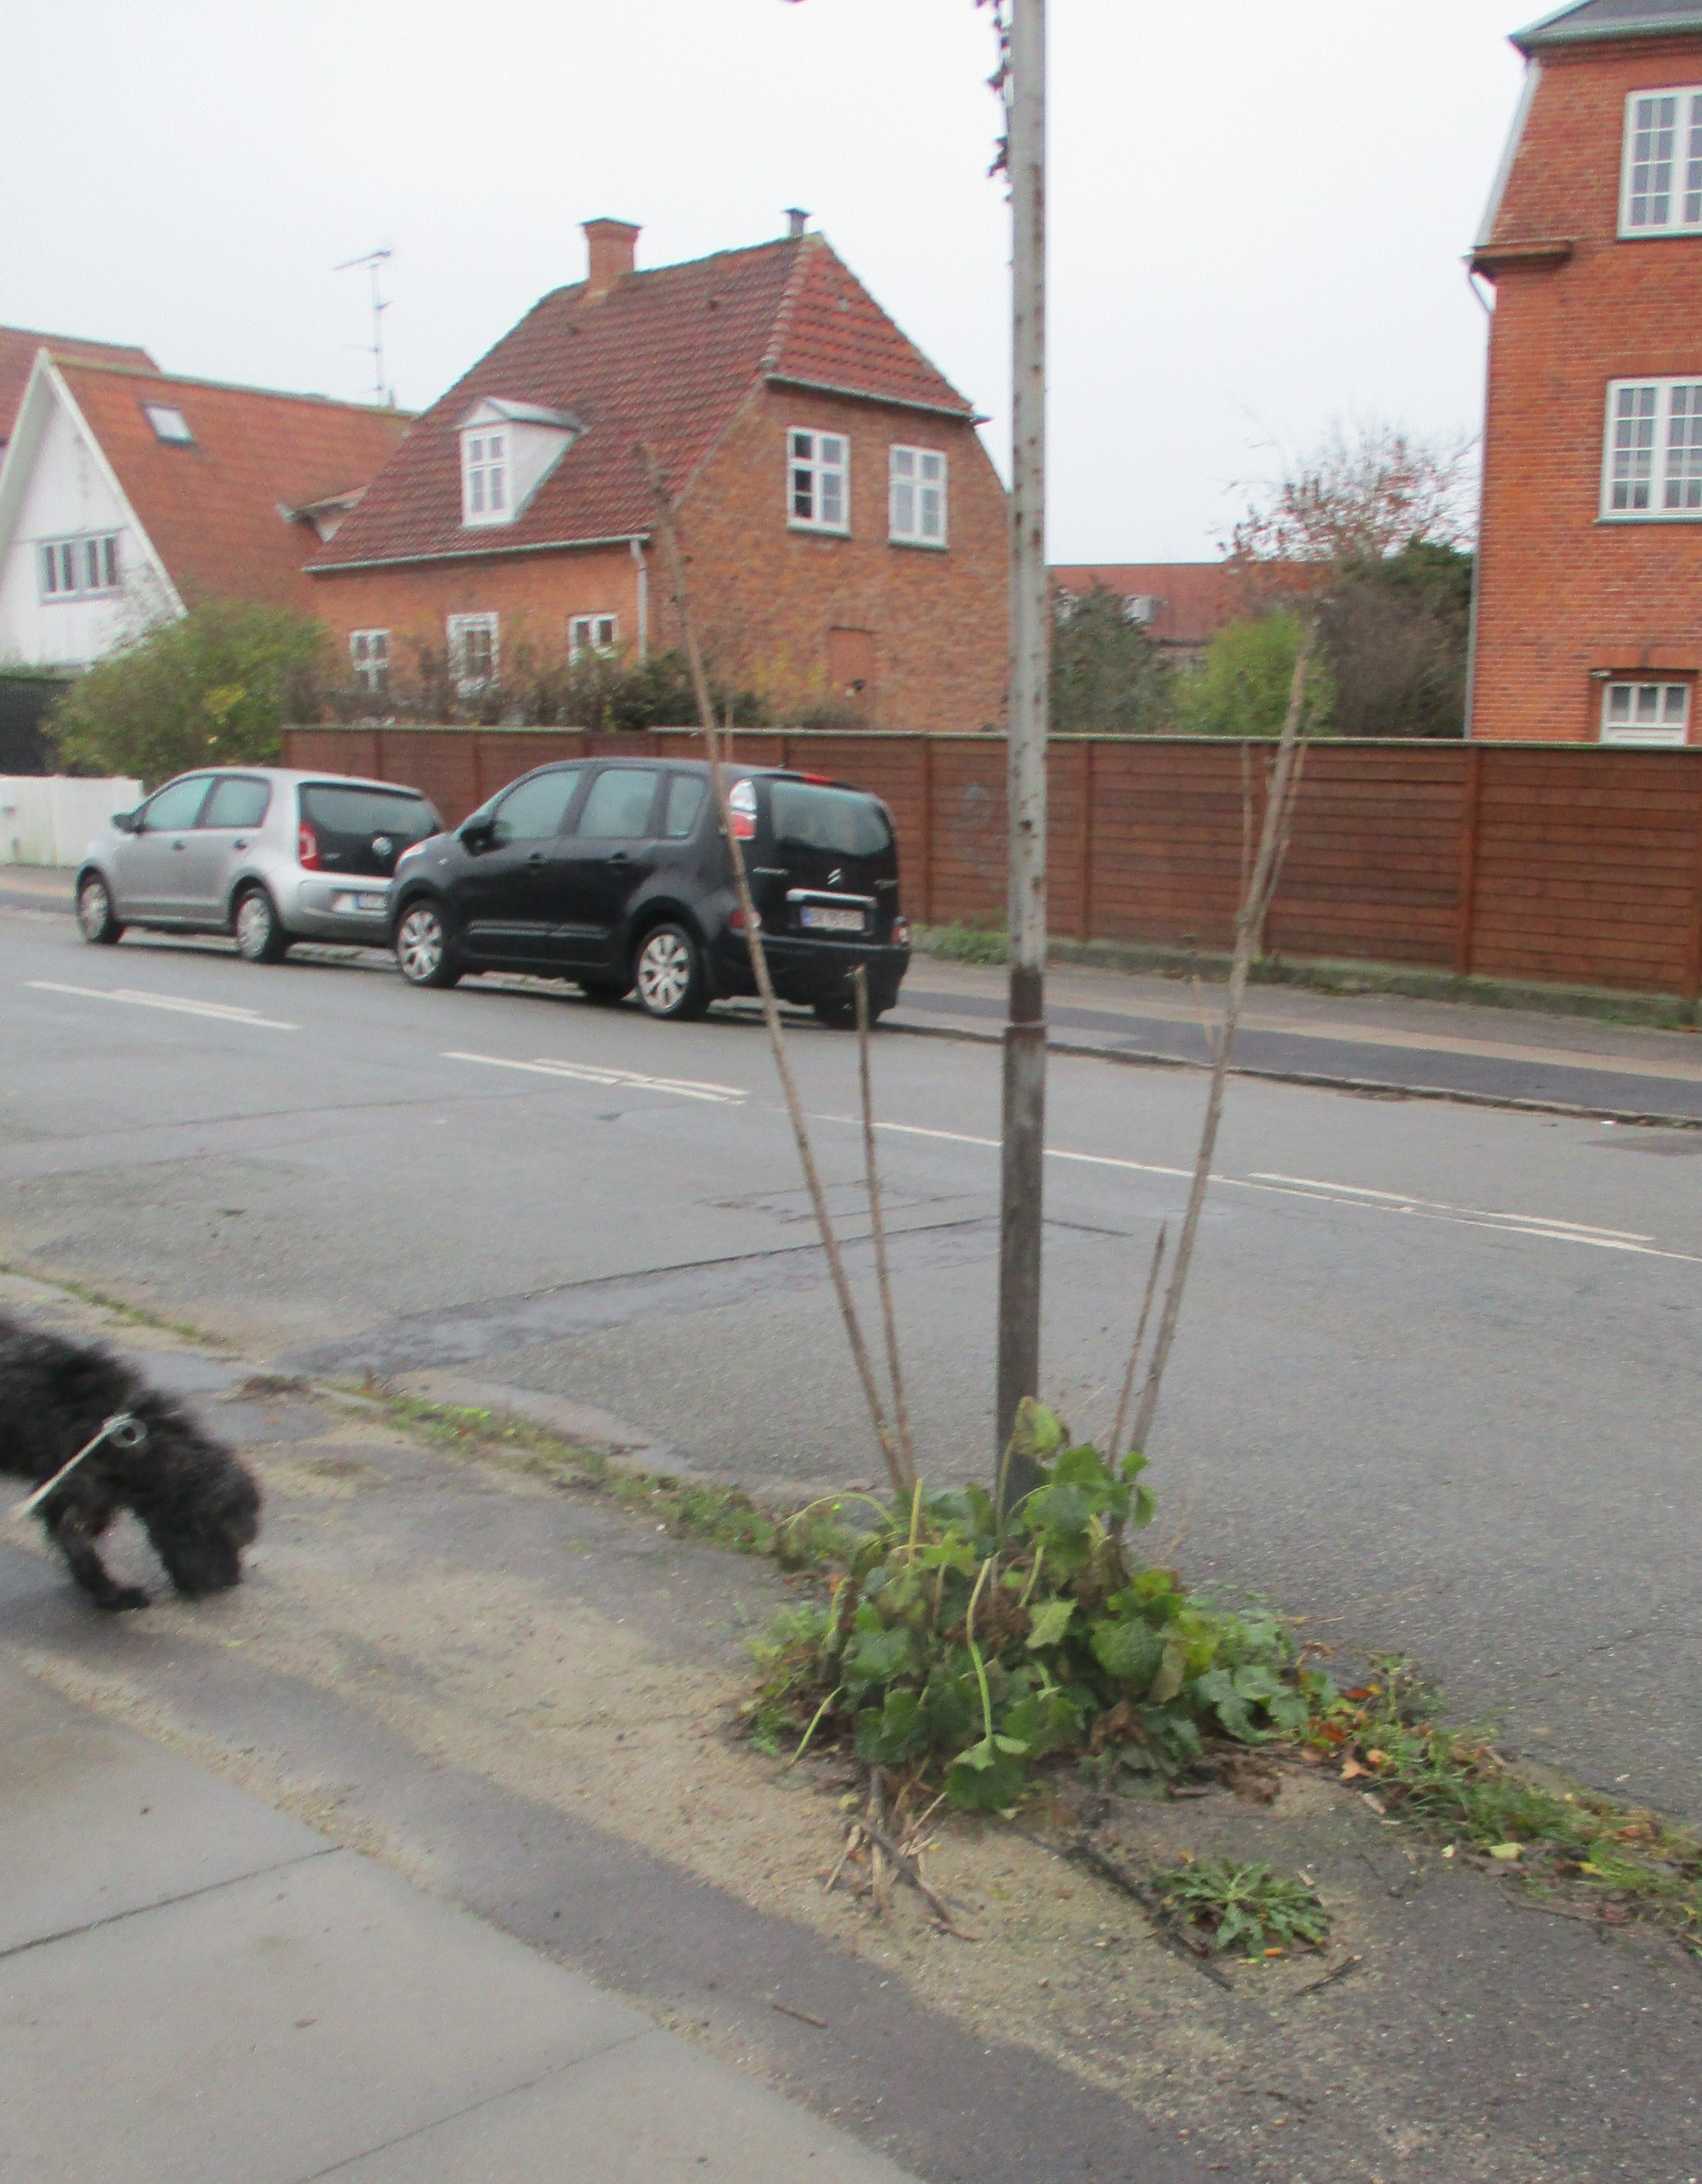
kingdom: Plantae
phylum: Tracheophyta
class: Magnoliopsida
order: Malvales
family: Malvaceae
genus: Alcea
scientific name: Alcea rosea
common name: Have-stokrose
